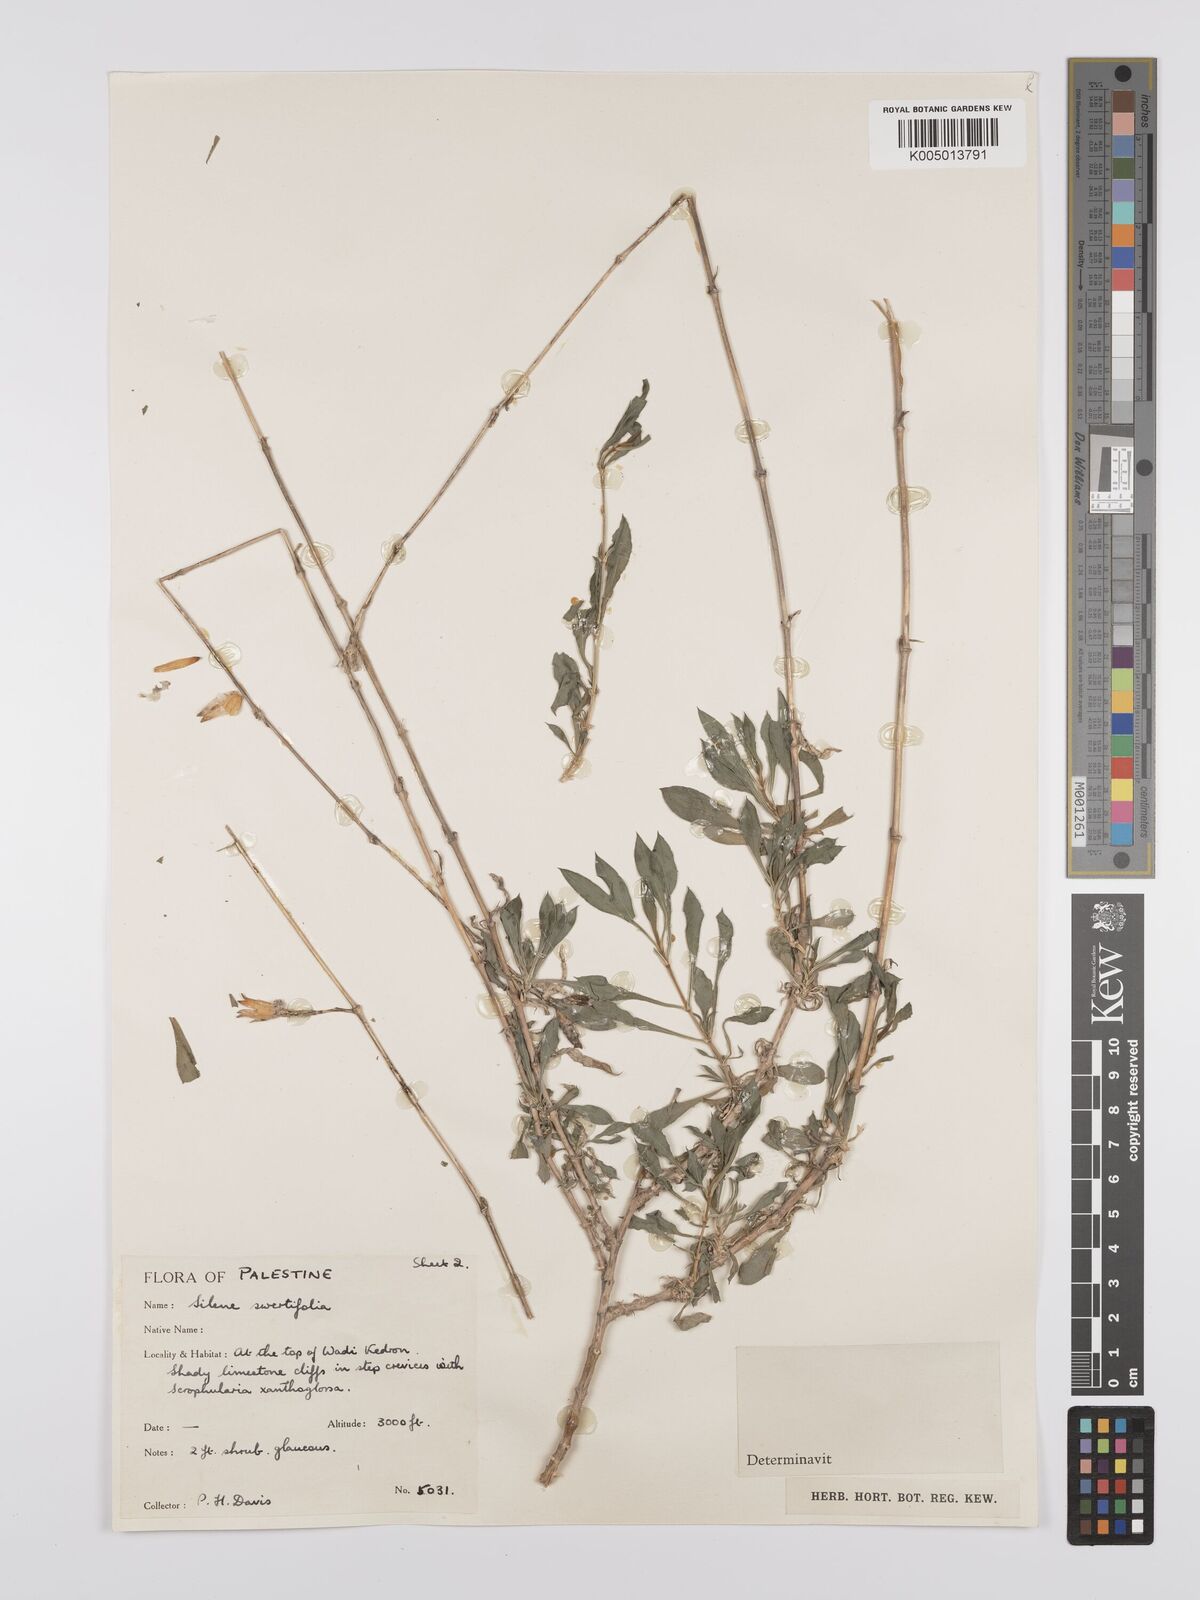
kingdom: Plantae
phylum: Tracheophyta
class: Magnoliopsida
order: Caryophyllales
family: Caryophyllaceae
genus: Silene
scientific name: Silene swertiifolia
